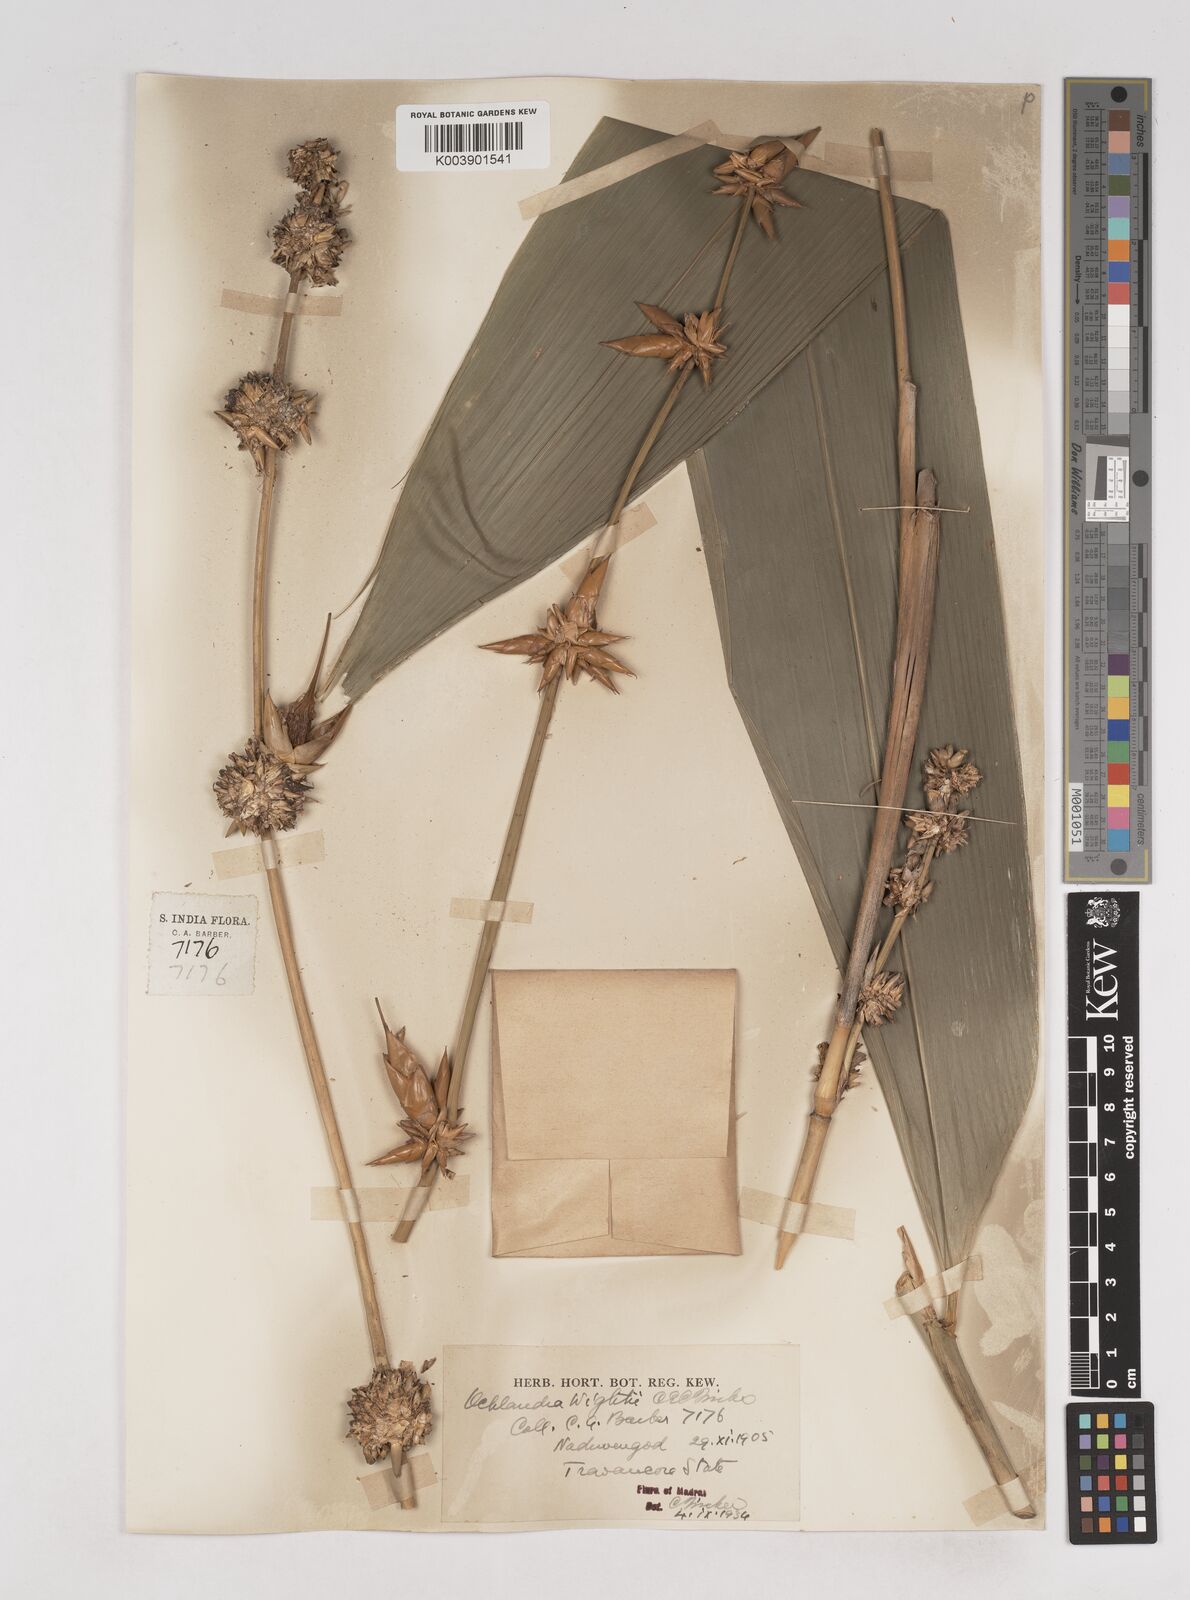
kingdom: Plantae
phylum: Tracheophyta
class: Liliopsida
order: Poales
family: Poaceae
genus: Ochlandra
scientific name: Ochlandra wightii
